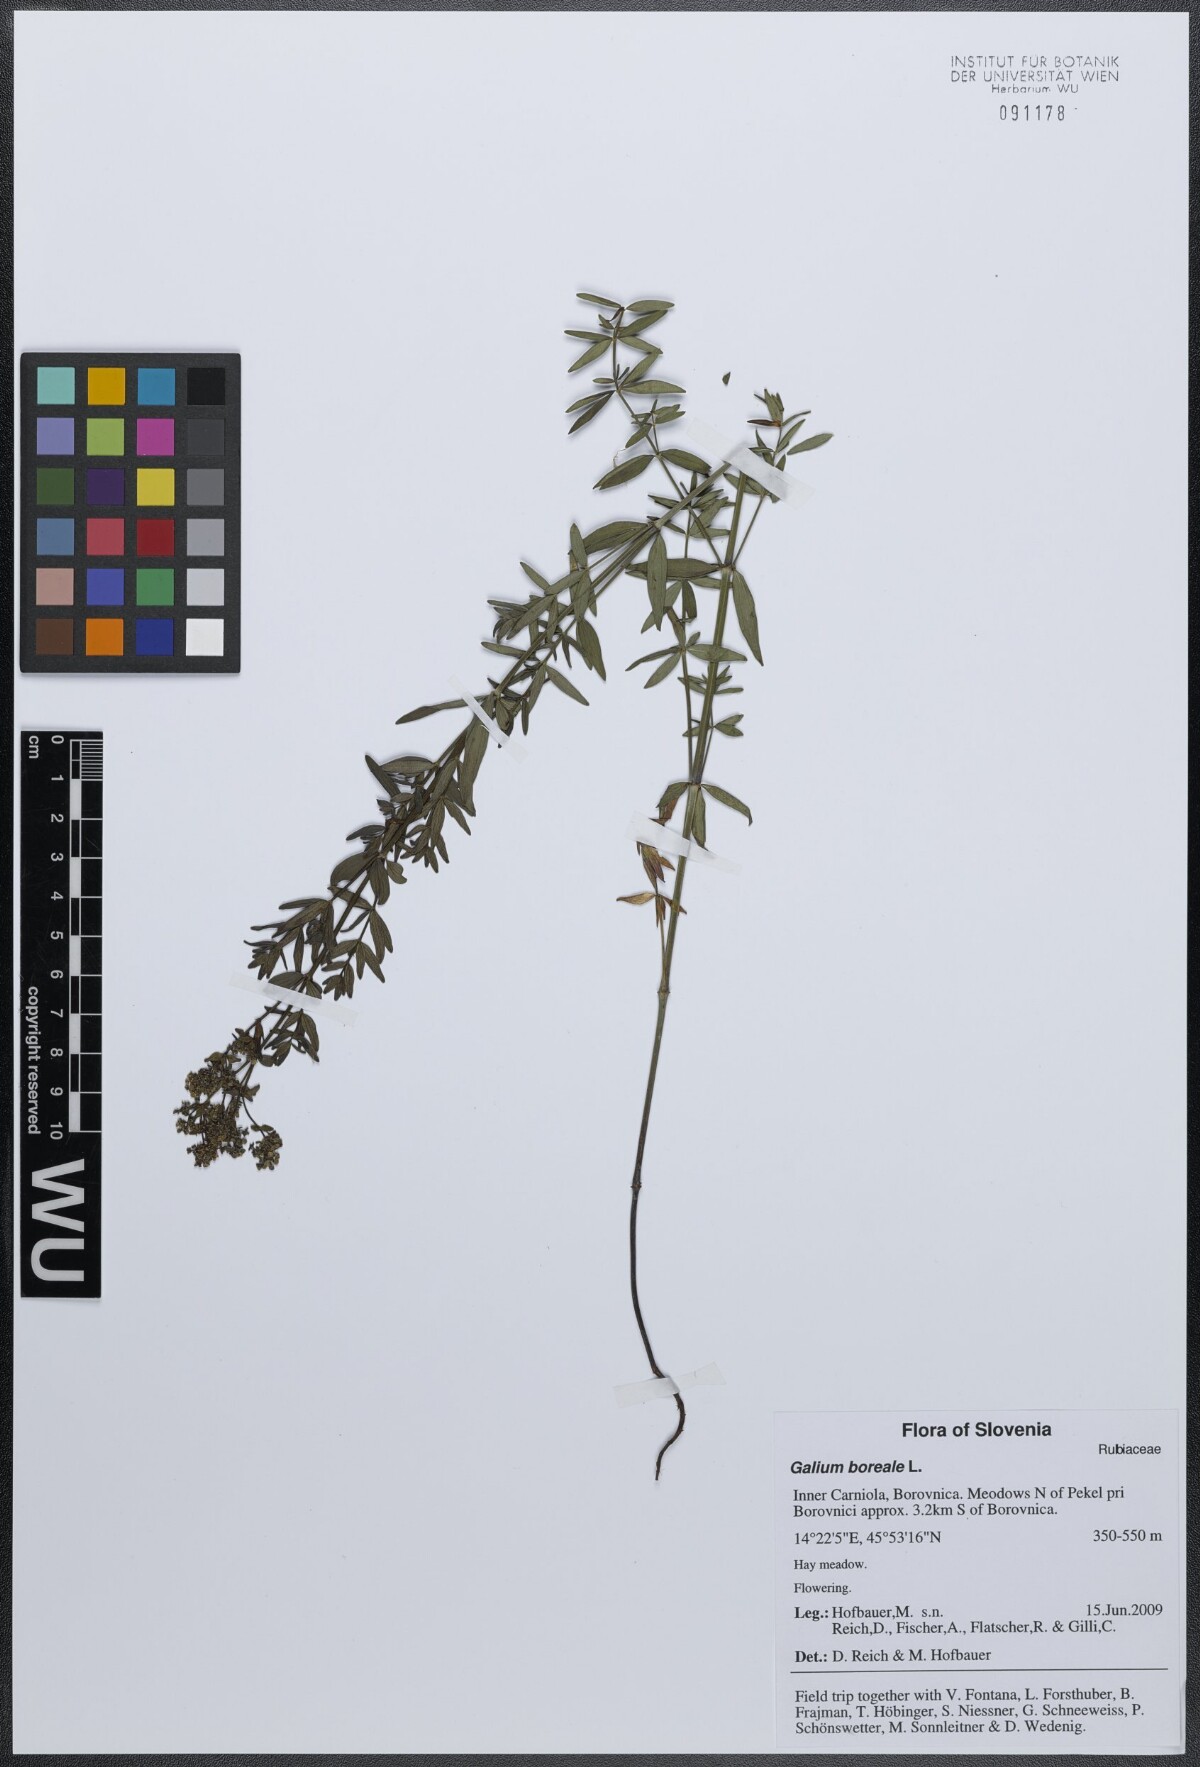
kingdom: Plantae
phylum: Tracheophyta
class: Magnoliopsida
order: Gentianales
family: Rubiaceae
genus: Galium
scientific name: Galium boreale
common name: Northern bedstraw
